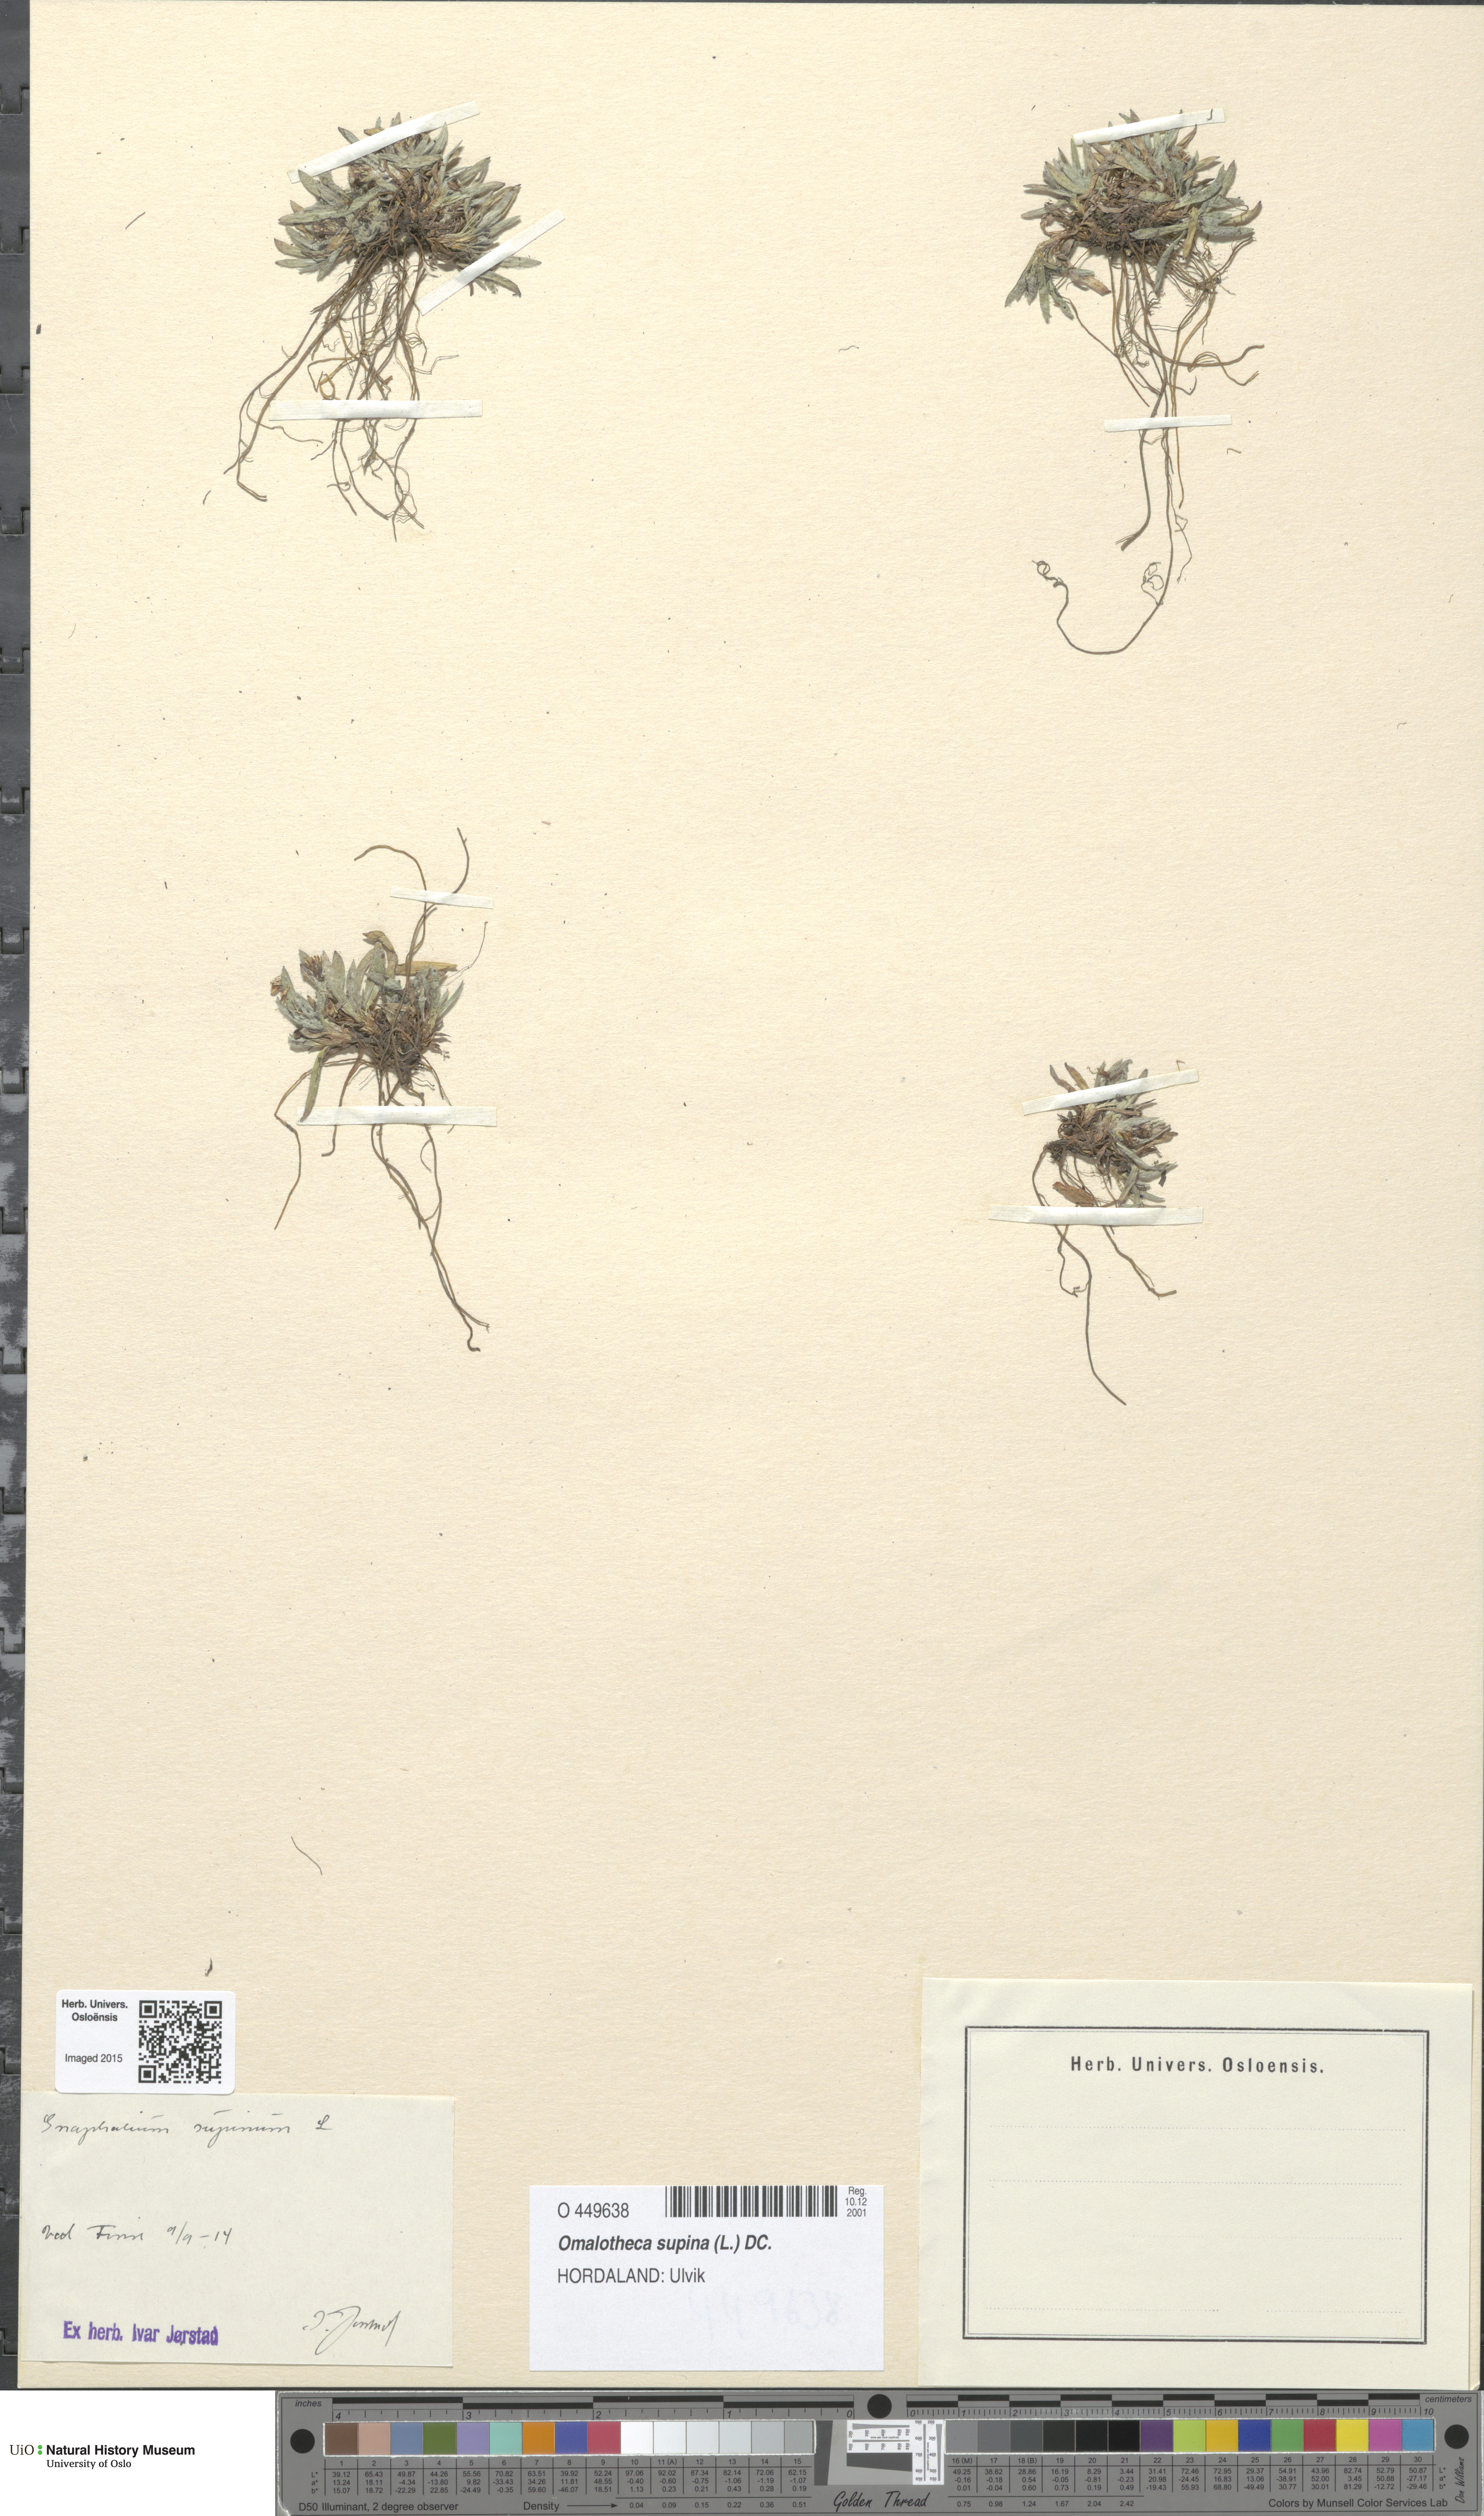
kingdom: Plantae
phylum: Tracheophyta
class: Magnoliopsida
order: Asterales
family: Asteraceae
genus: Omalotheca
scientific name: Omalotheca supina
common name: Alpine arctic-cudweed
